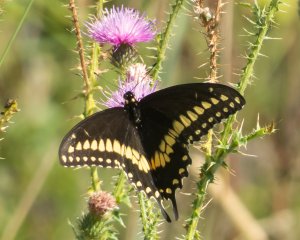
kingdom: Animalia
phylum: Arthropoda
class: Insecta
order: Lepidoptera
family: Papilionidae
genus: Papilio
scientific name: Papilio polyxenes
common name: Black Swallowtail
